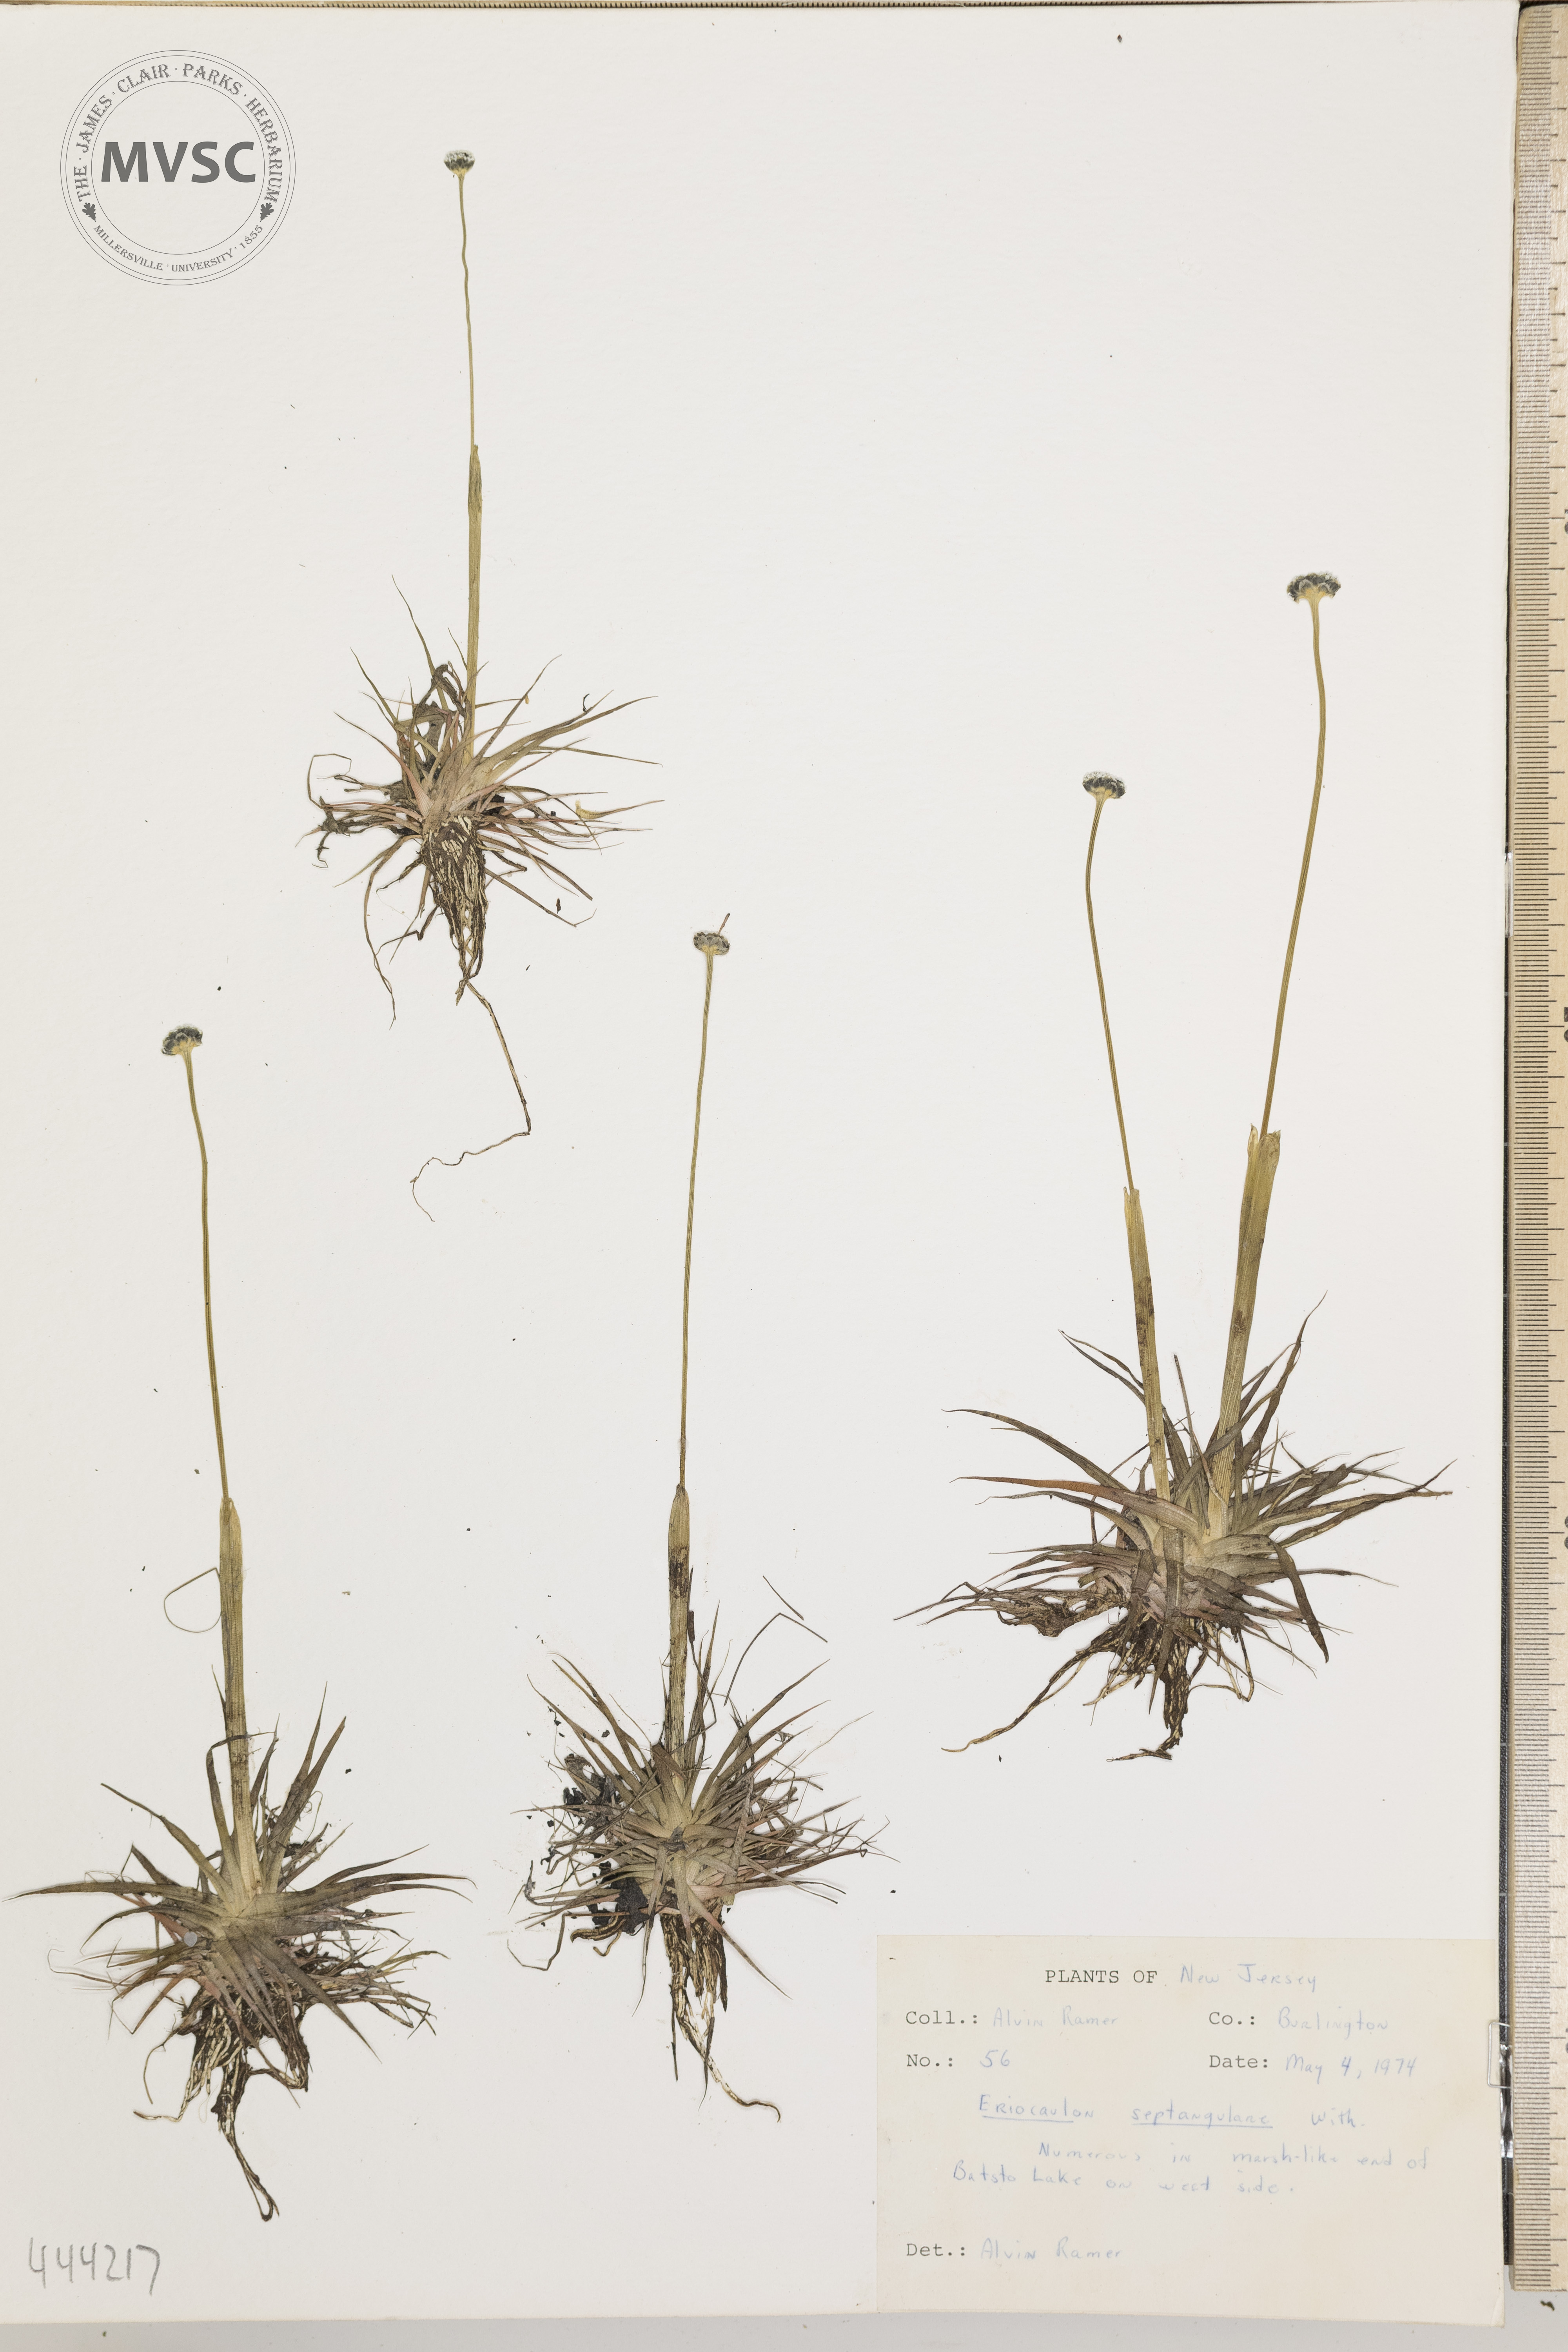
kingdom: Plantae
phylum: Tracheophyta
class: Liliopsida
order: Poales
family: Eriocaulaceae
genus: Eriocaulon
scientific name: Eriocaulon aquaticum
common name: Pipewort
